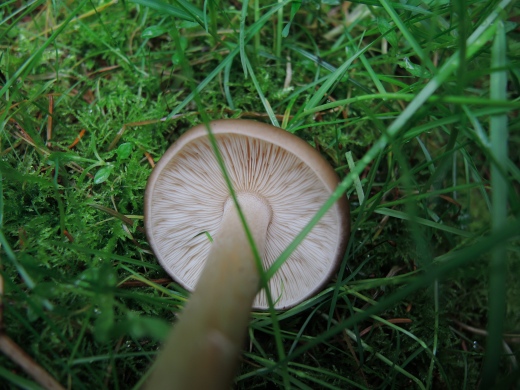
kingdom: Fungi
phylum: Basidiomycota
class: Agaricomycetes
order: Agaricales
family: Tricholomataceae
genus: Melanoleuca
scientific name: Melanoleuca cognata
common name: gyldengrå munkehat
